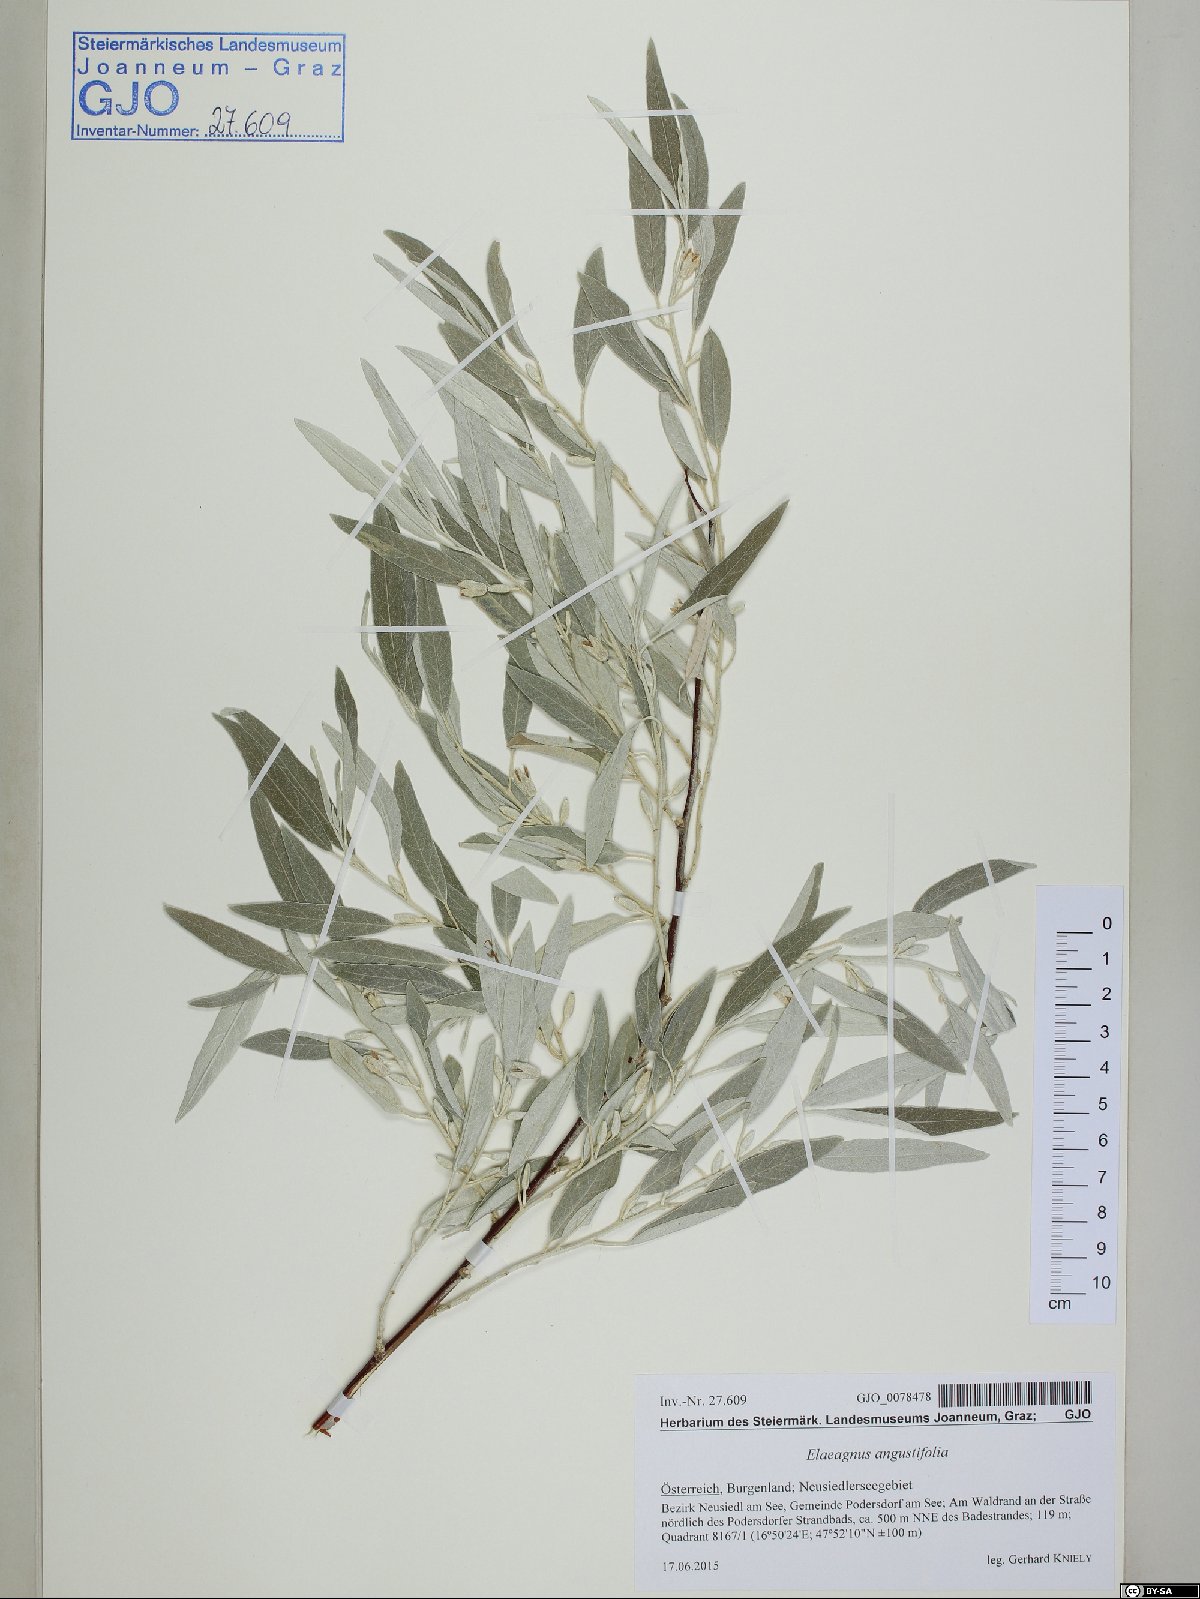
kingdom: Plantae
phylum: Tracheophyta
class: Magnoliopsida
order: Rosales
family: Elaeagnaceae
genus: Elaeagnus
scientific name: Elaeagnus angustifolia
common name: Russian olive
